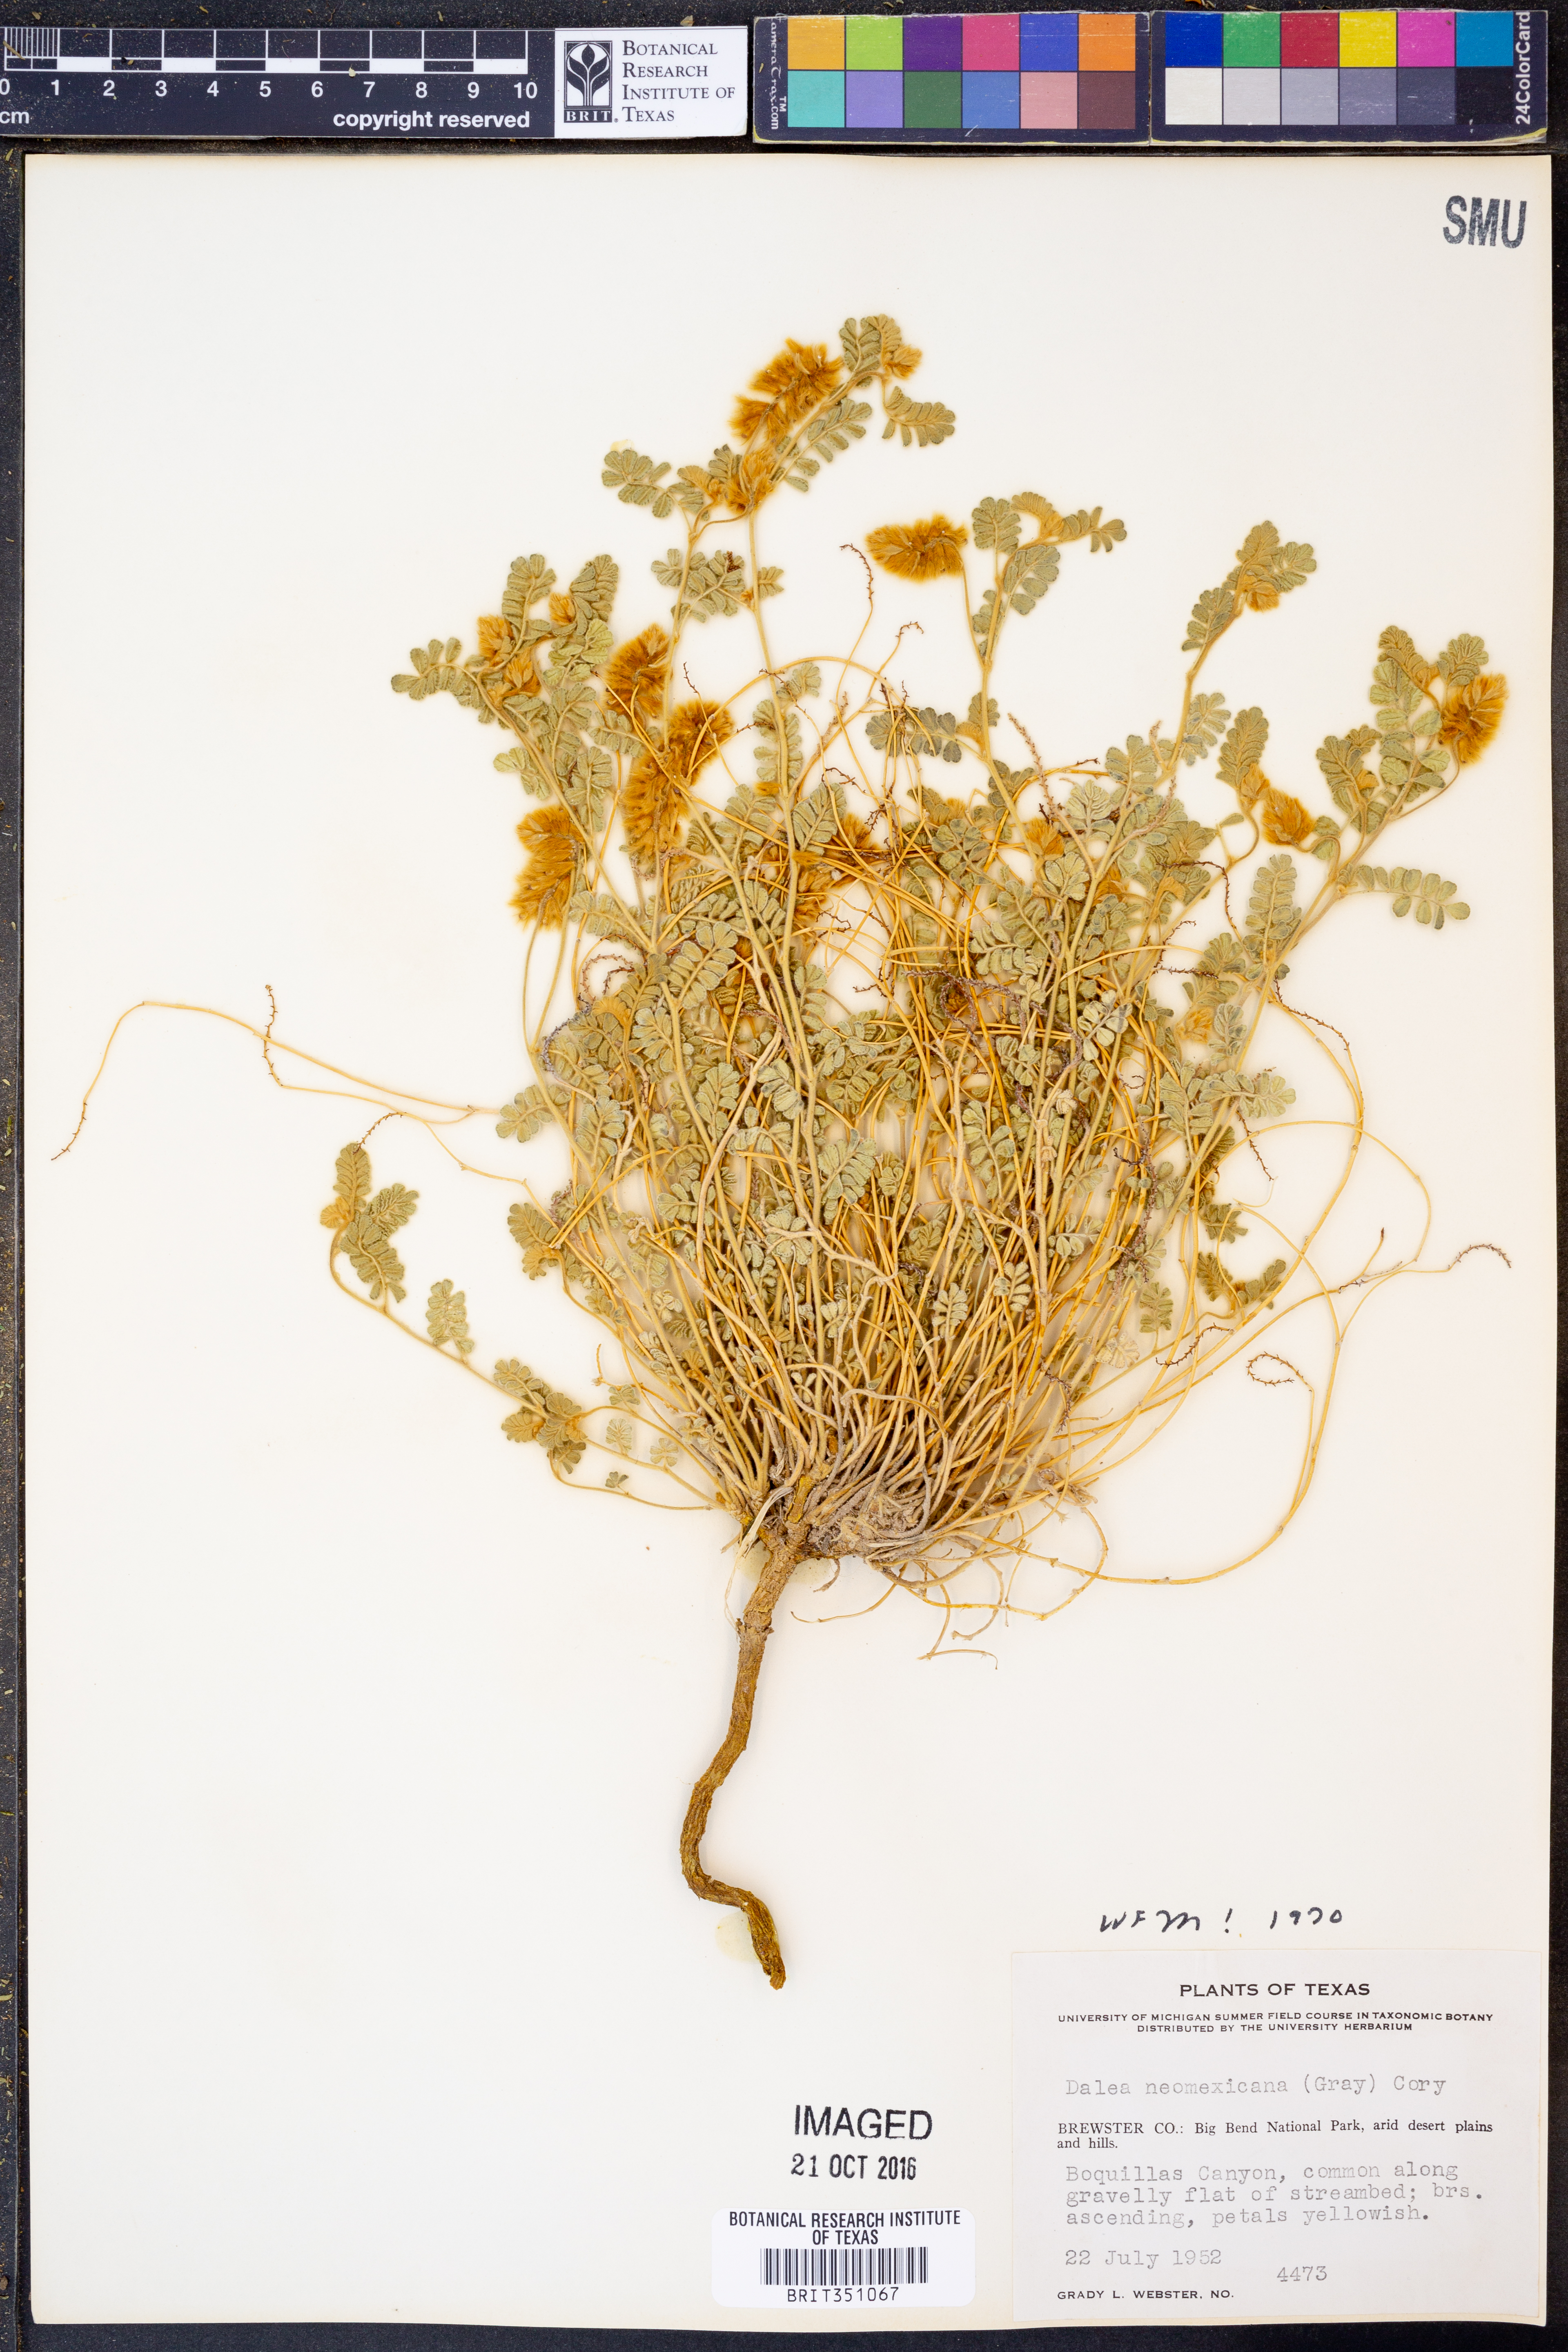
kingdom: Plantae
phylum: Tracheophyta
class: Magnoliopsida
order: Fabales
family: Fabaceae
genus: Dalea
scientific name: Dalea neomexicana
